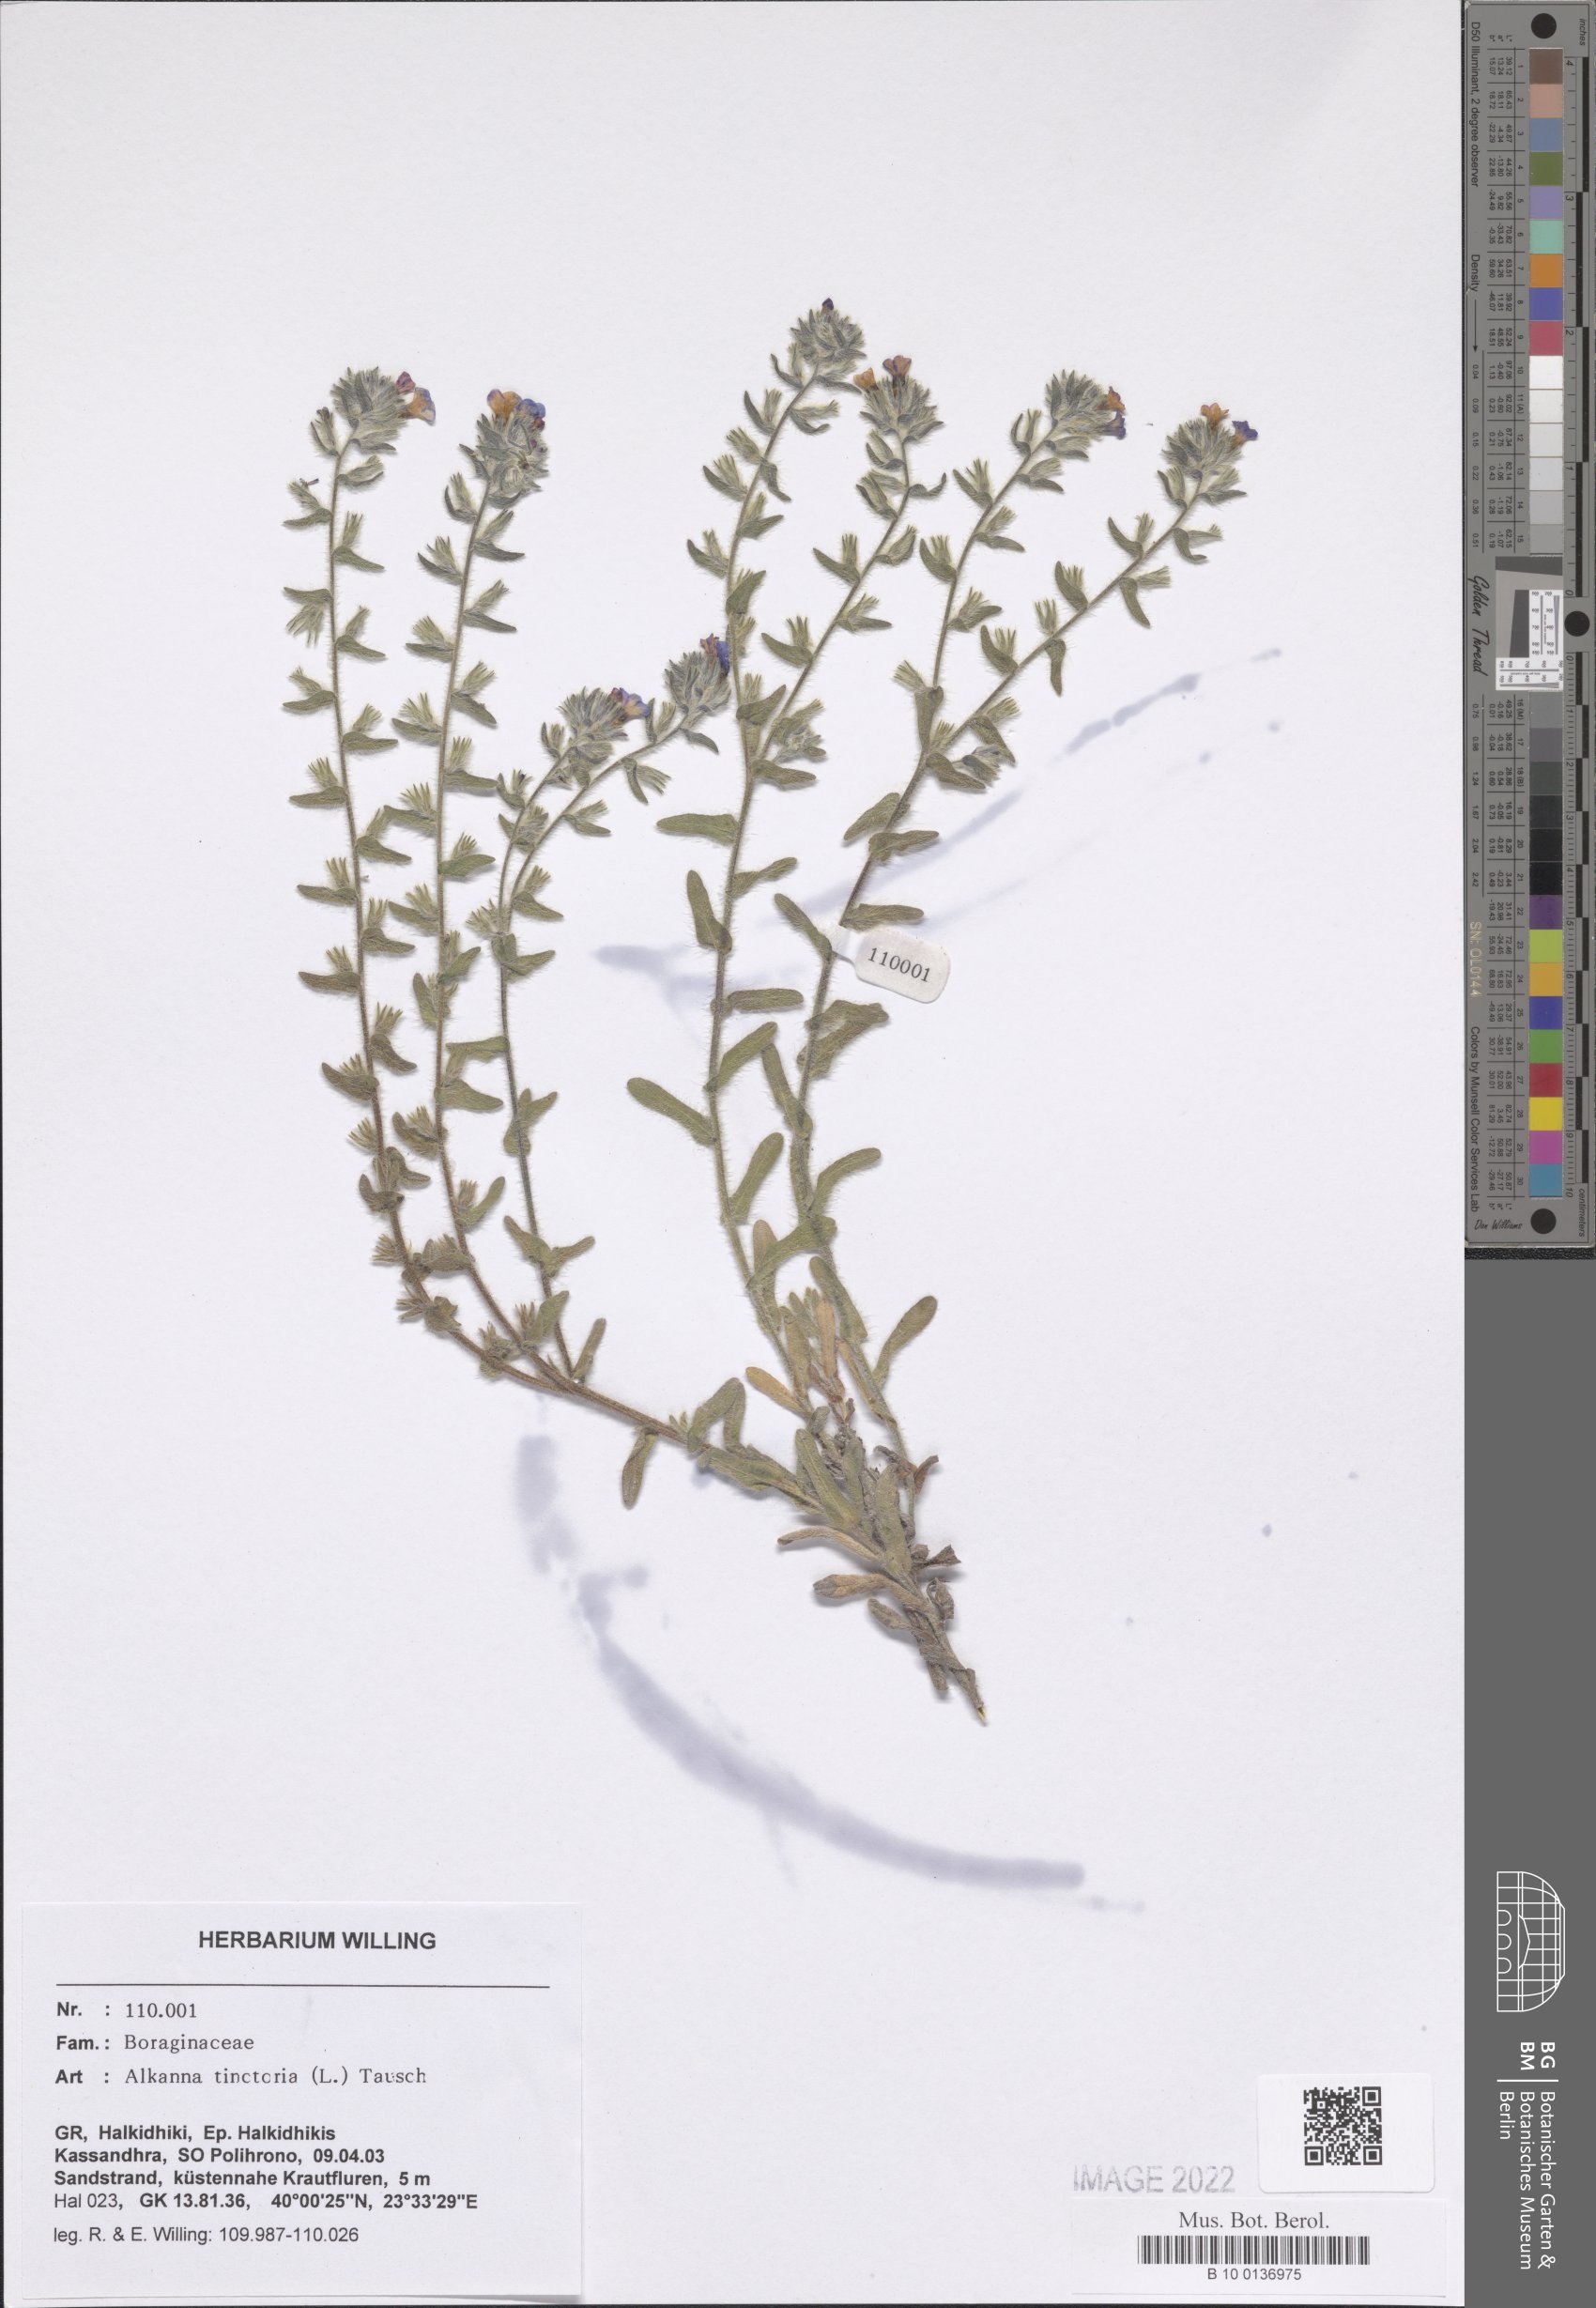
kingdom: Plantae
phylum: Tracheophyta
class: Magnoliopsida
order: Boraginales
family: Boraginaceae
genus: Alkanna
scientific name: Alkanna tinctoria
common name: Dyer's-alkanet
